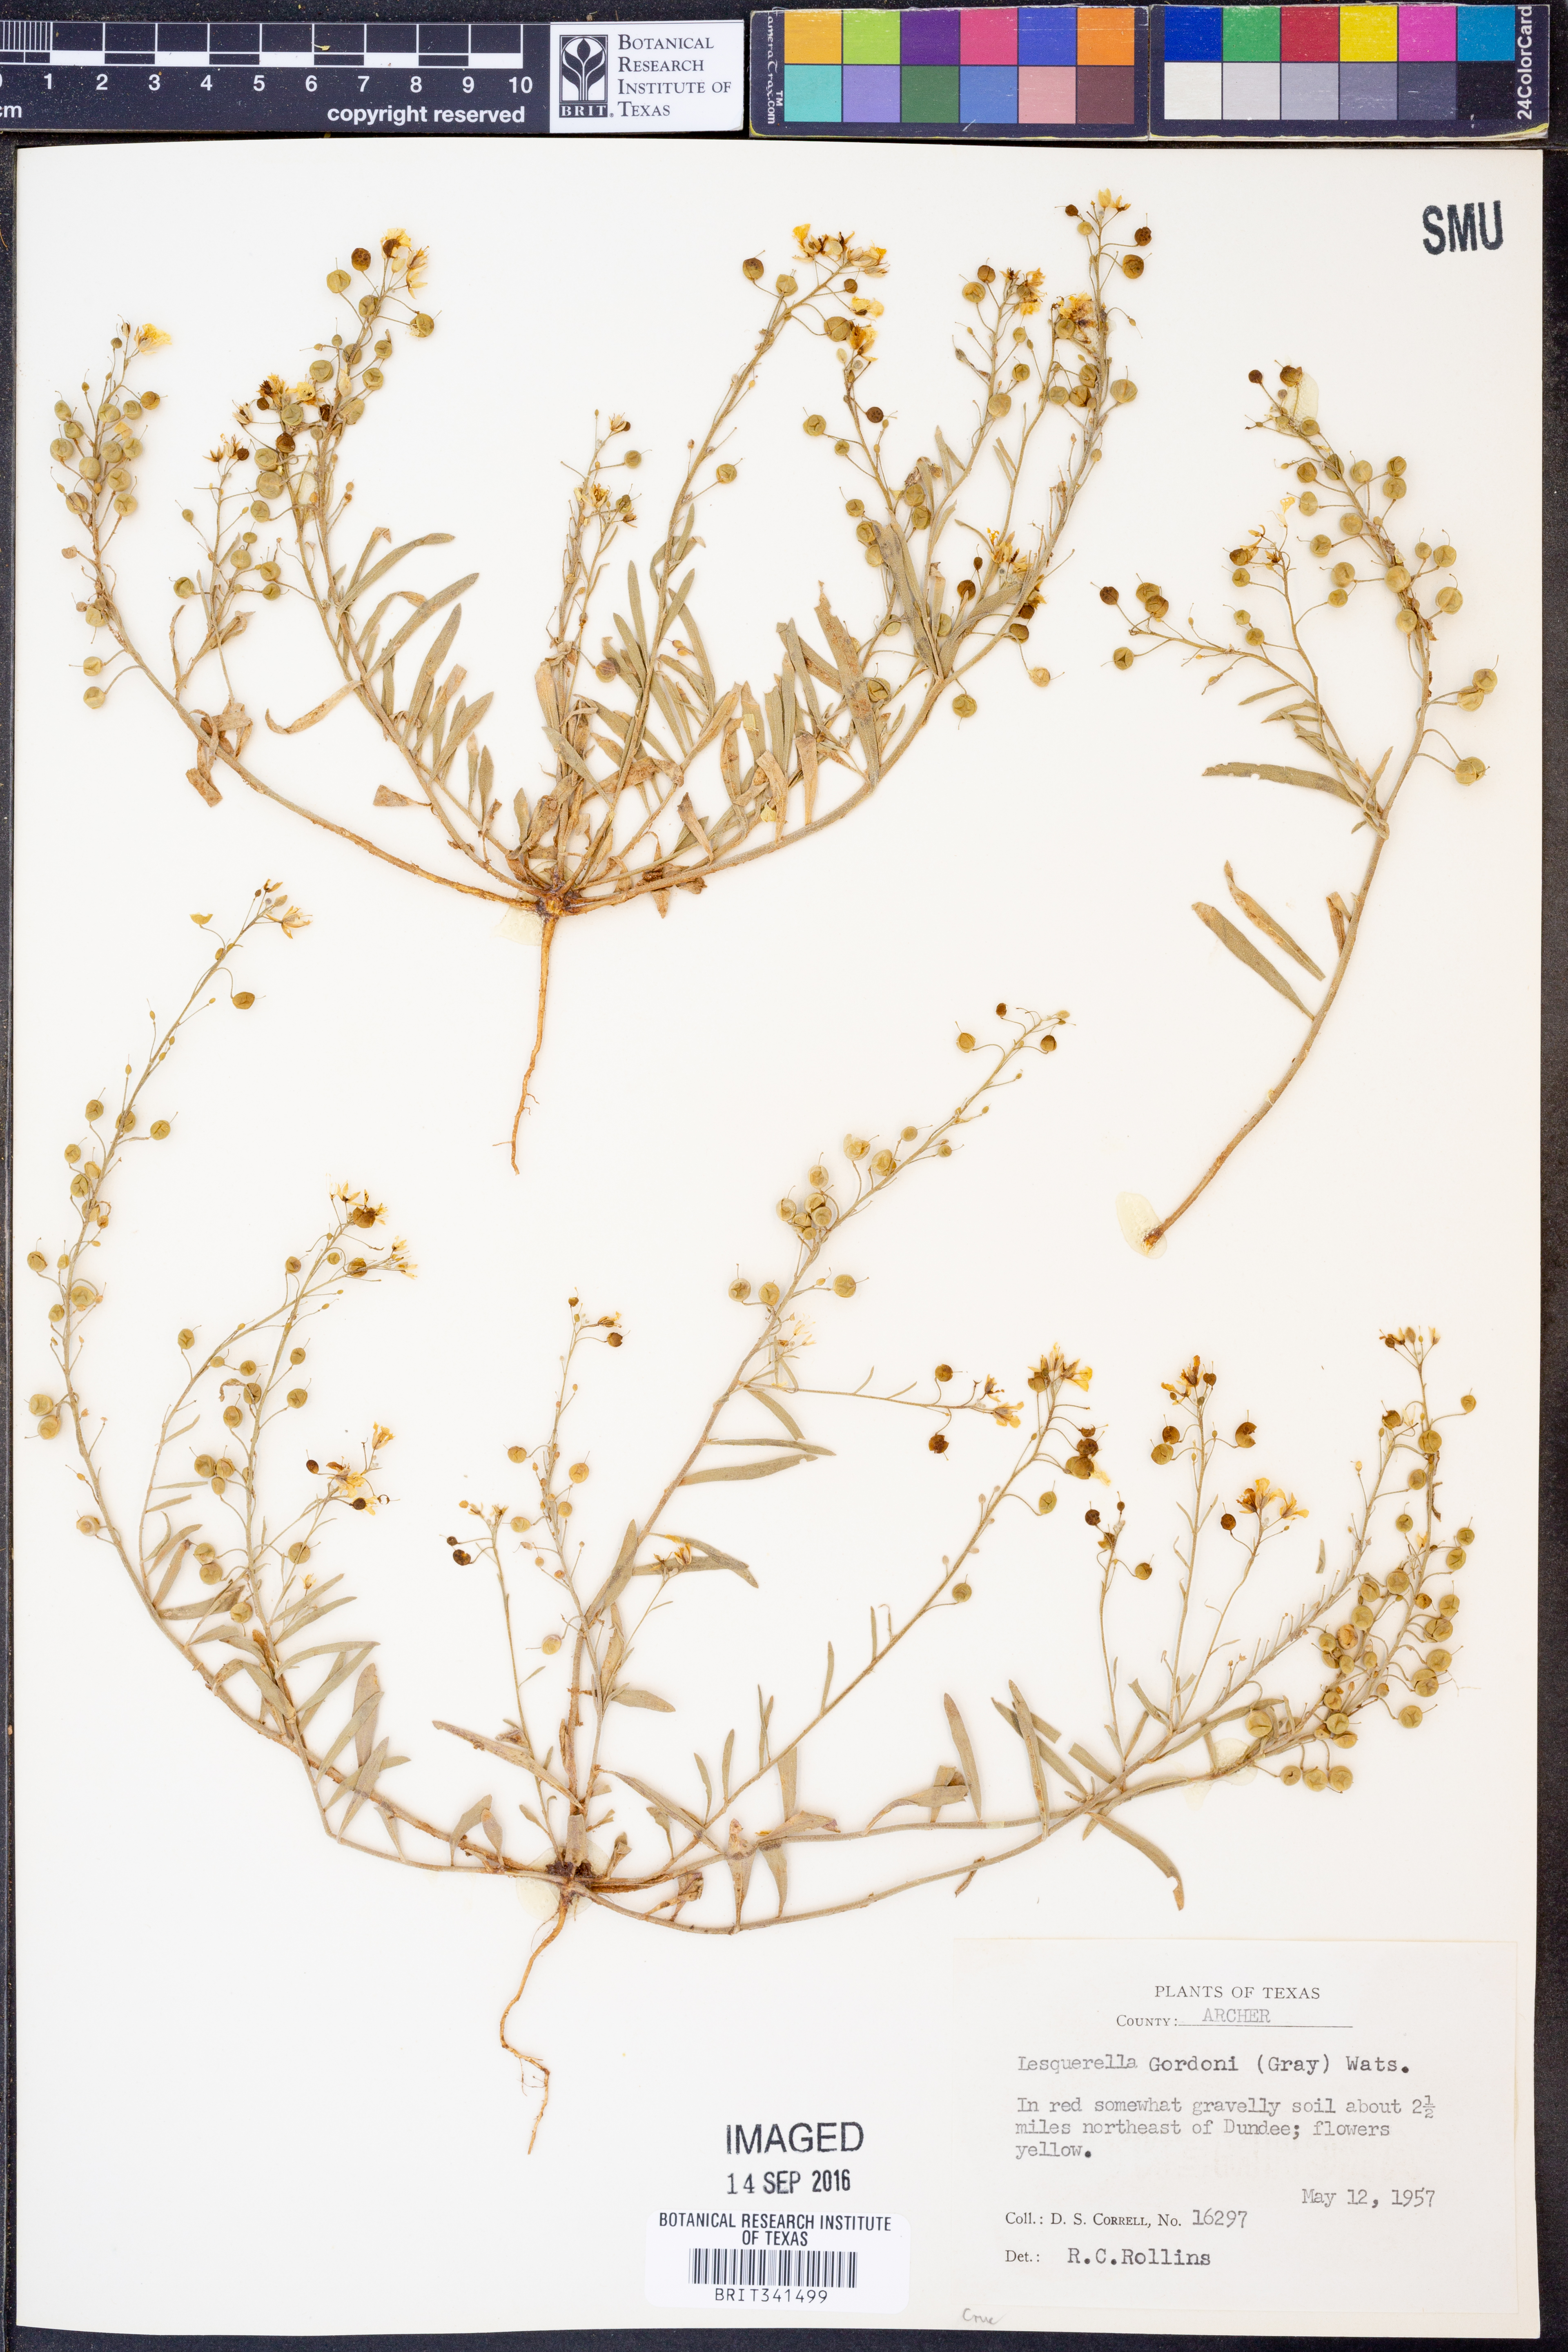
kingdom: Plantae
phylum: Tracheophyta
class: Magnoliopsida
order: Brassicales
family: Brassicaceae
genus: Physaria
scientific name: Physaria gordonii
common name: Gordon's bladderpod
